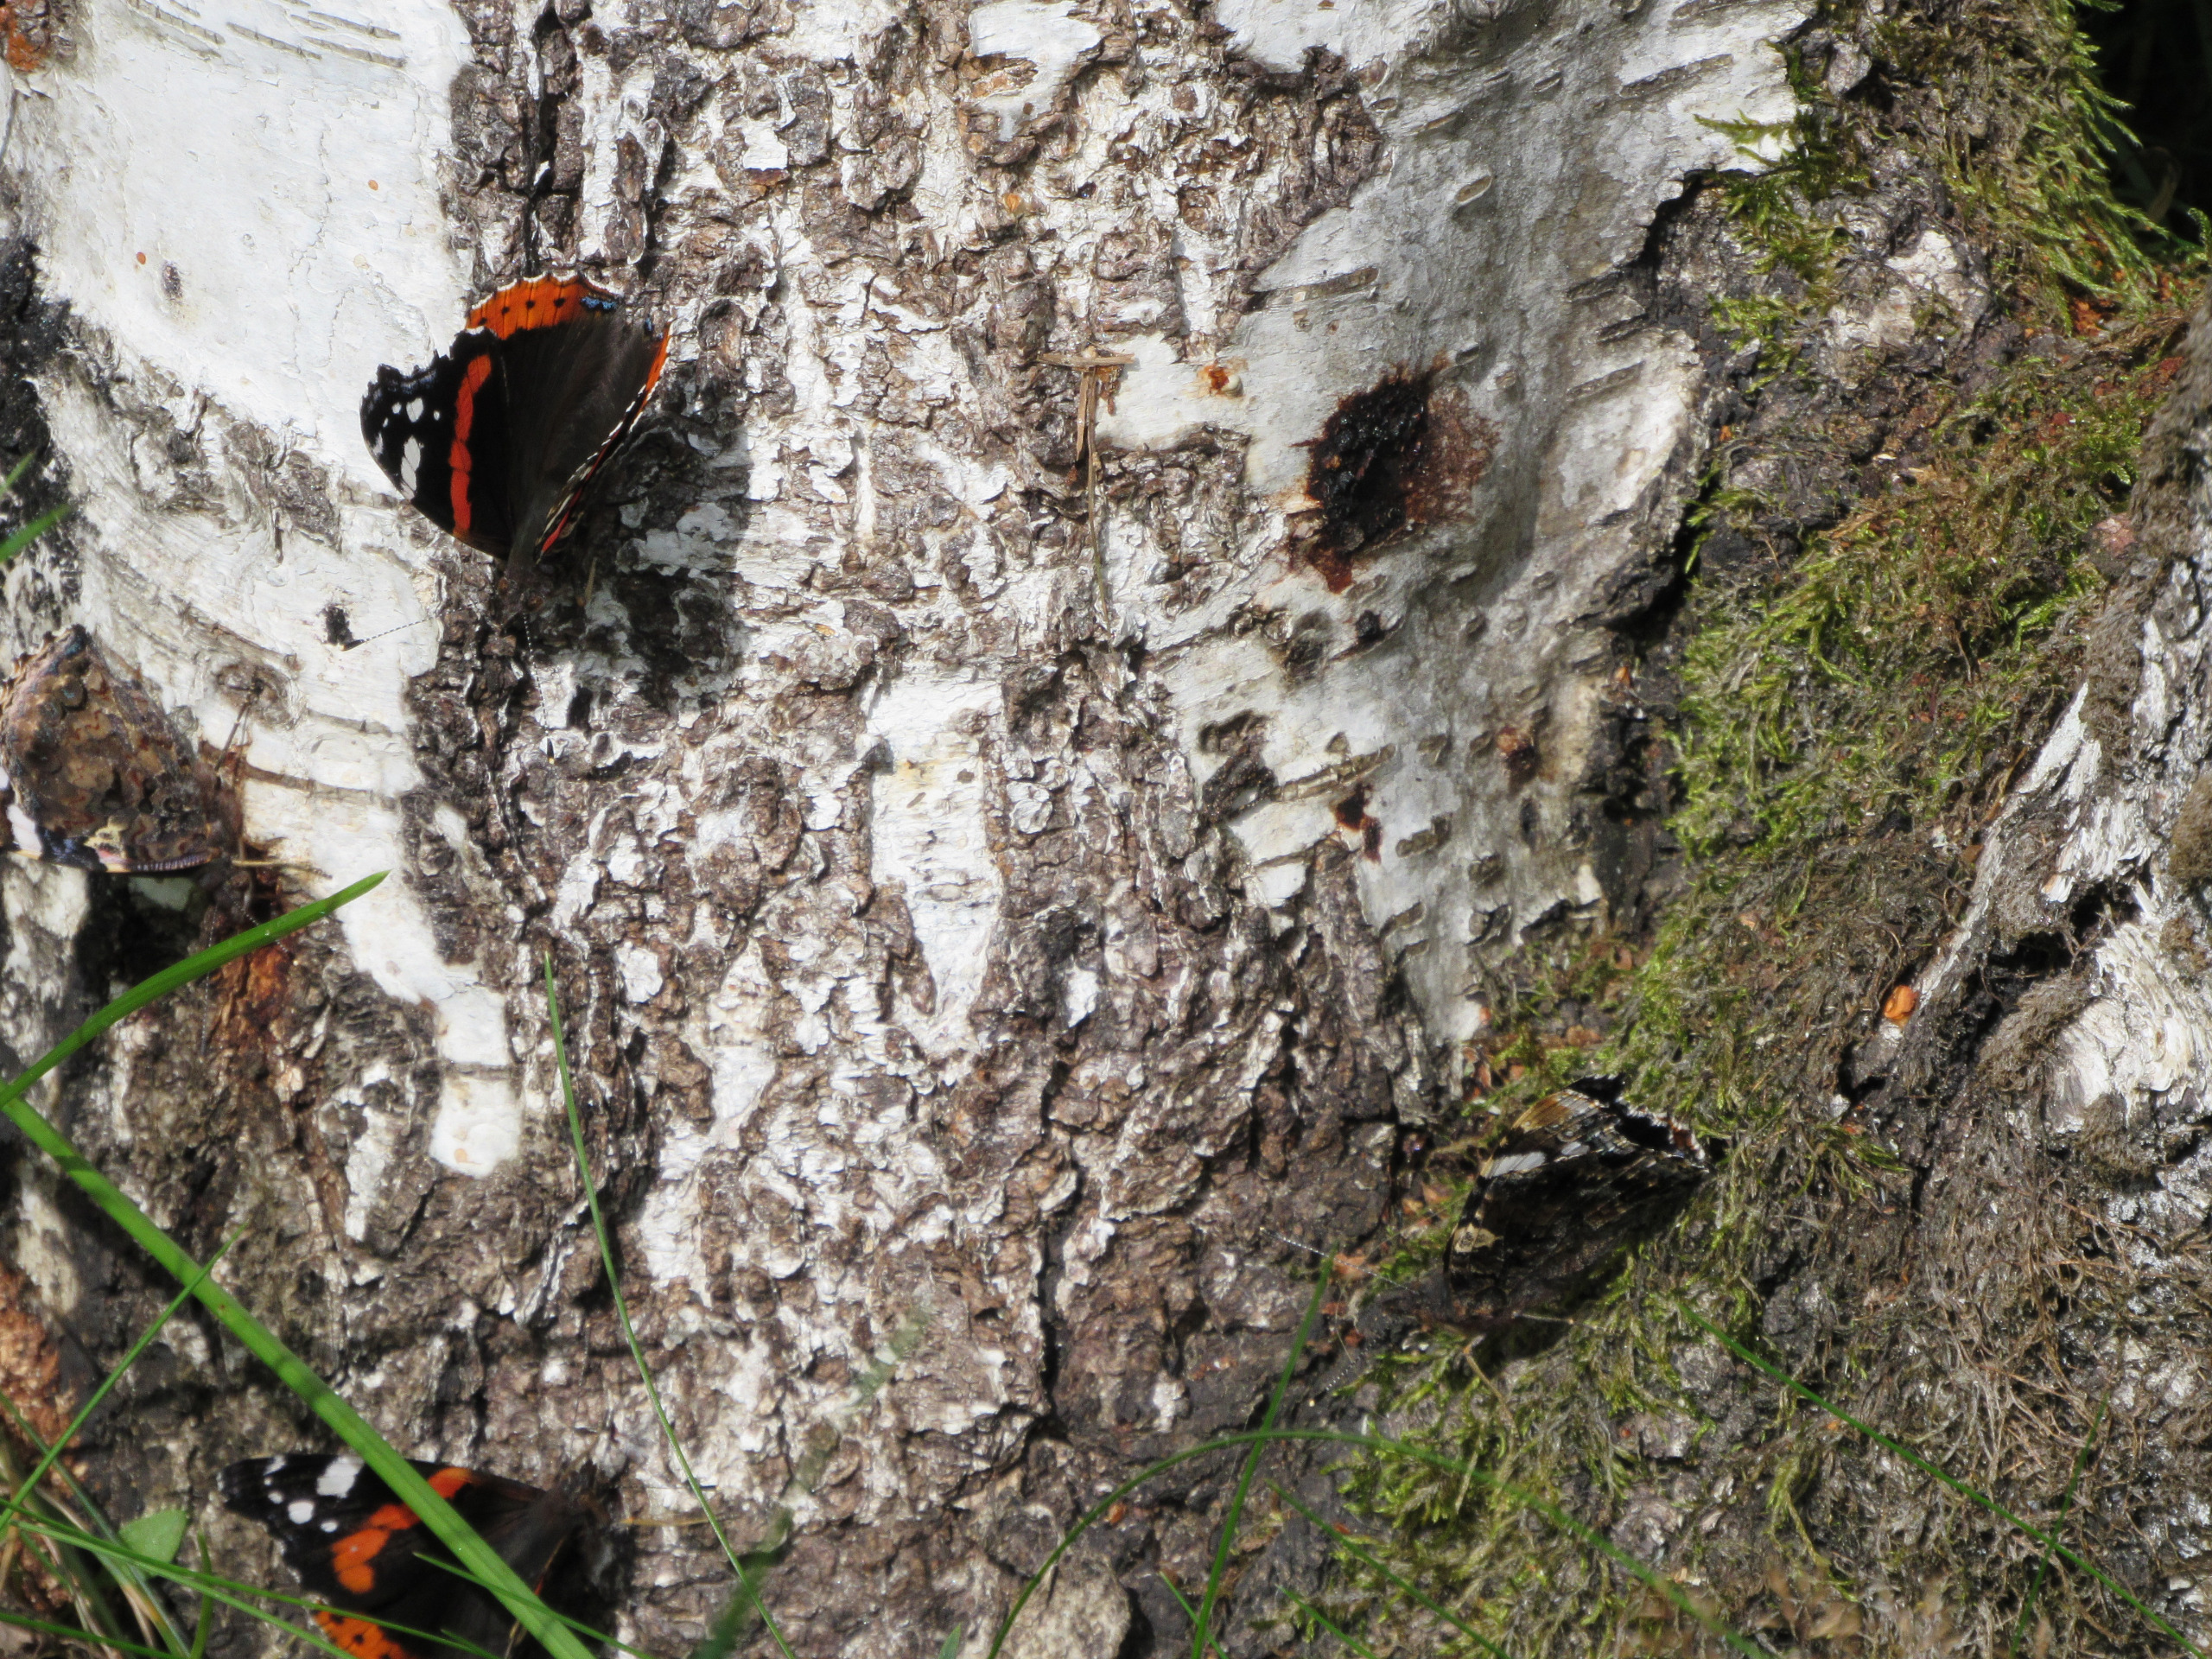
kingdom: Animalia
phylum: Arthropoda
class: Insecta
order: Lepidoptera
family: Nymphalidae
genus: Vanessa
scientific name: Vanessa atalanta
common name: Admiral
